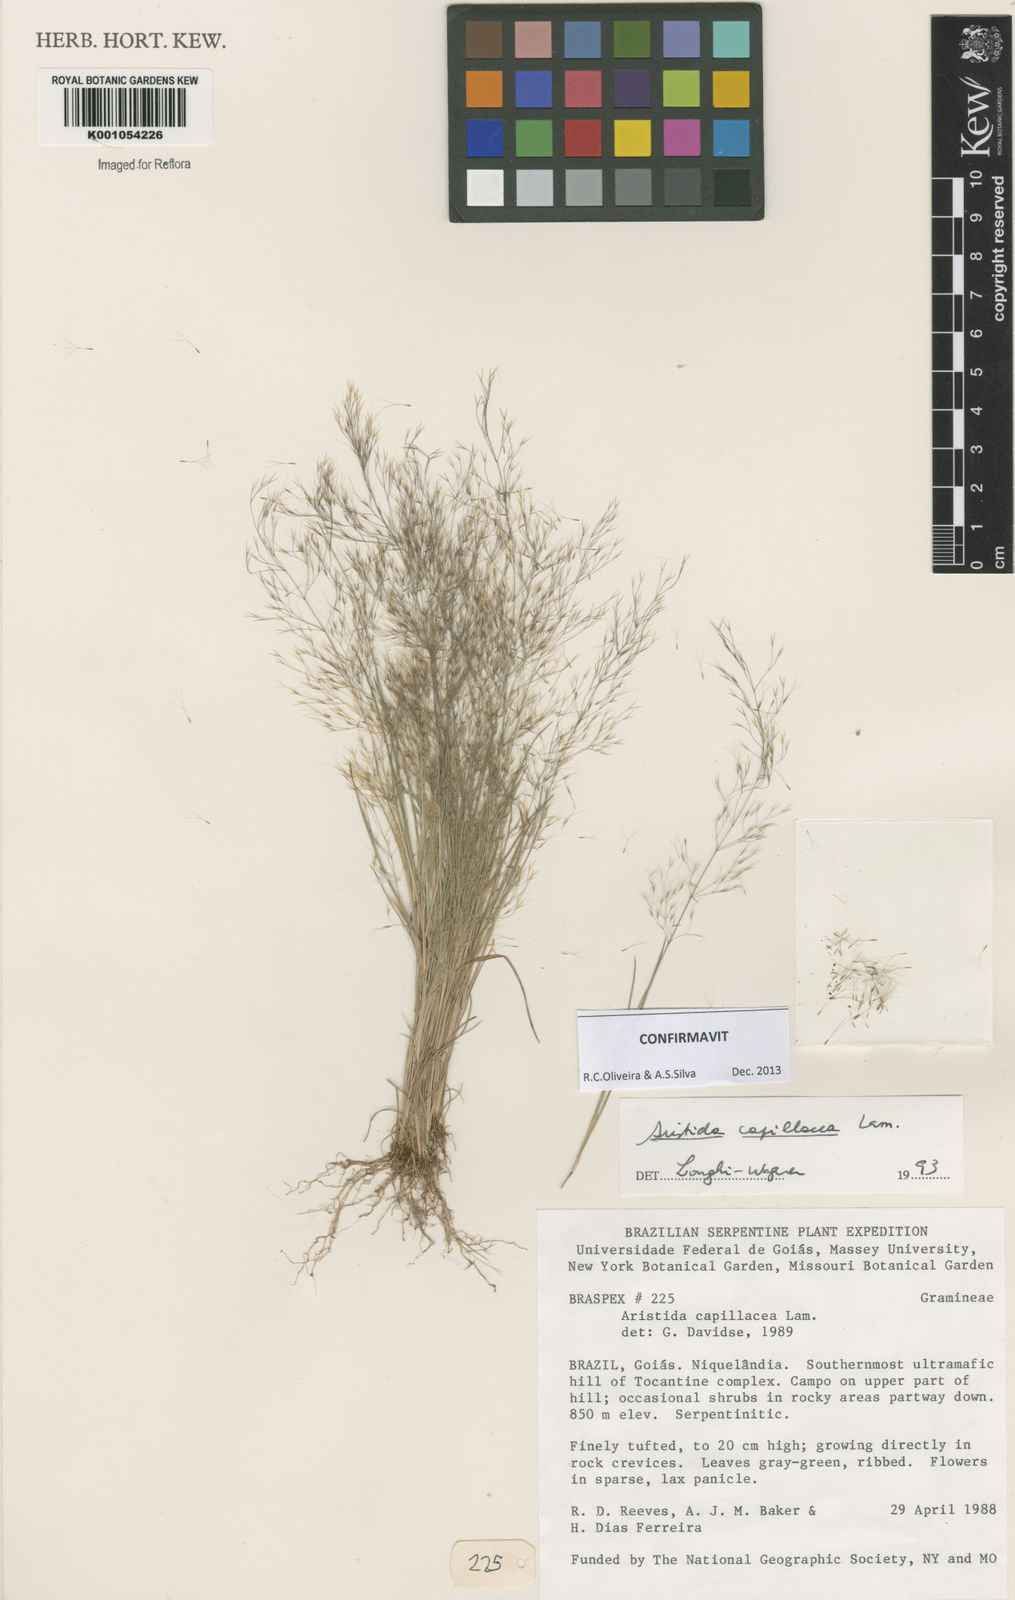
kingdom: Plantae
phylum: Tracheophyta
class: Liliopsida
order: Poales
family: Poaceae
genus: Aristida
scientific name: Aristida capillacea
